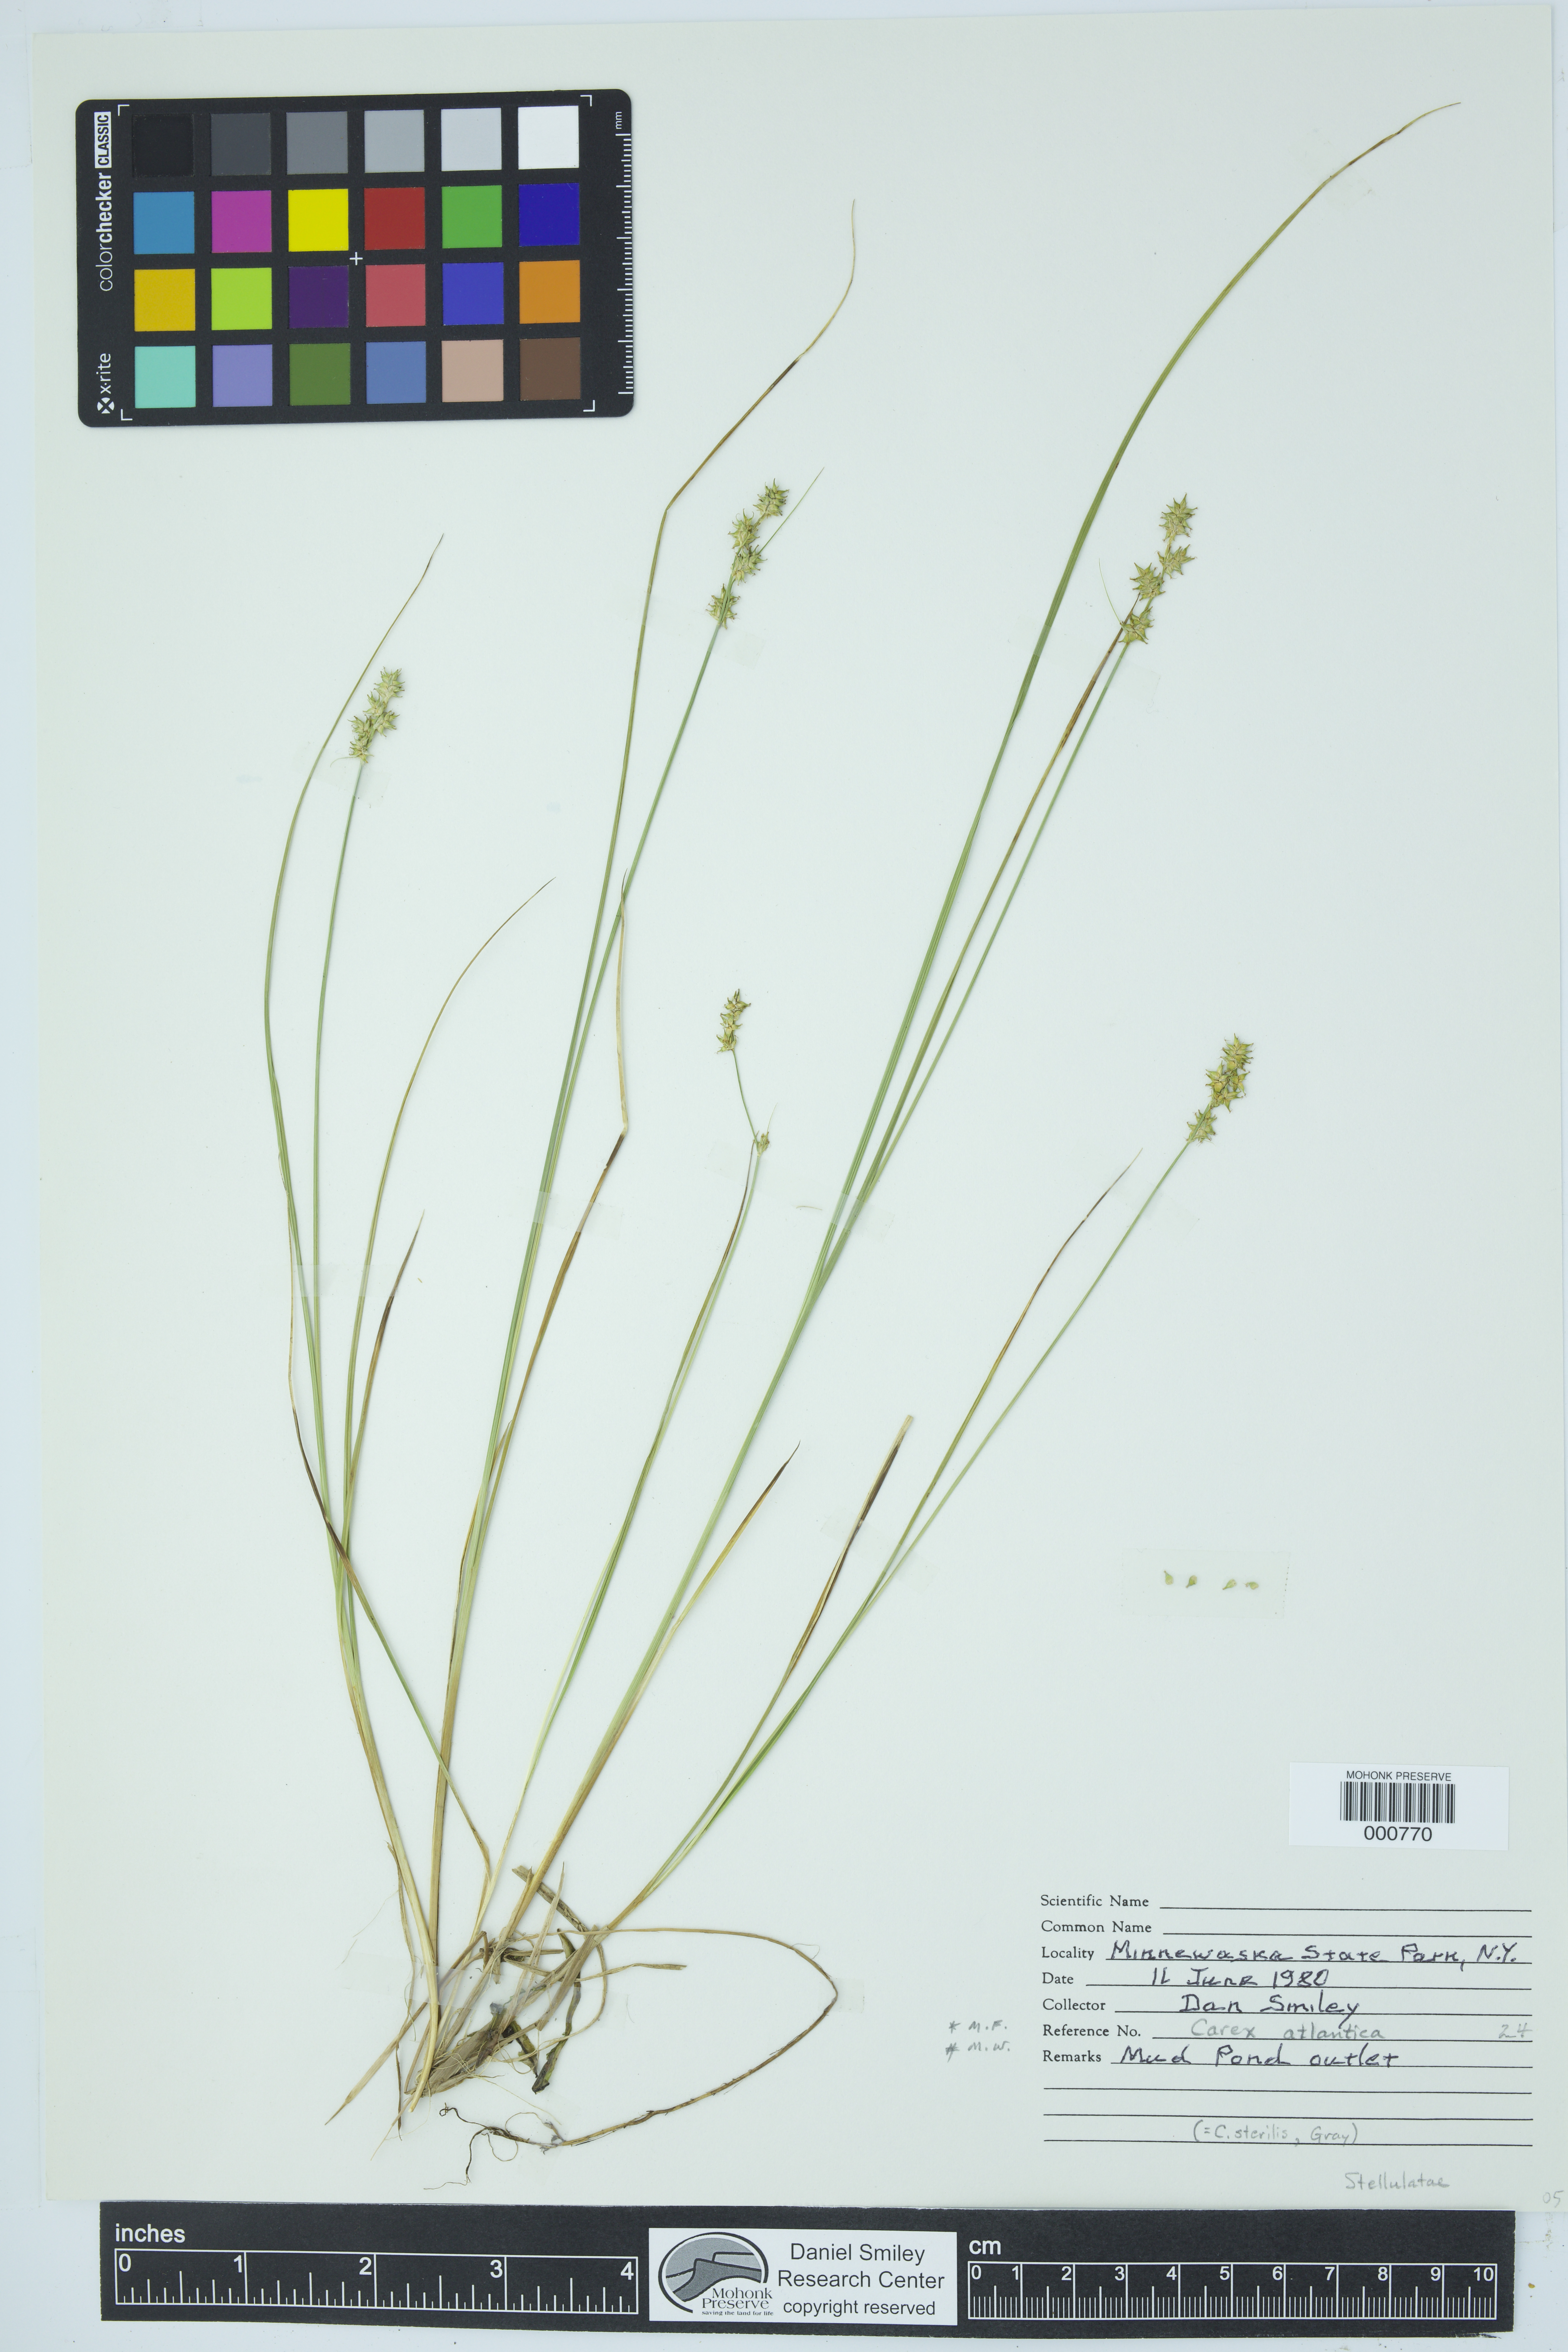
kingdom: Plantae
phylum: Tracheophyta
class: Liliopsida
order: Poales
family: Cyperaceae
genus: Carex
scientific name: Carex atlantica
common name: Atlantic sedge
